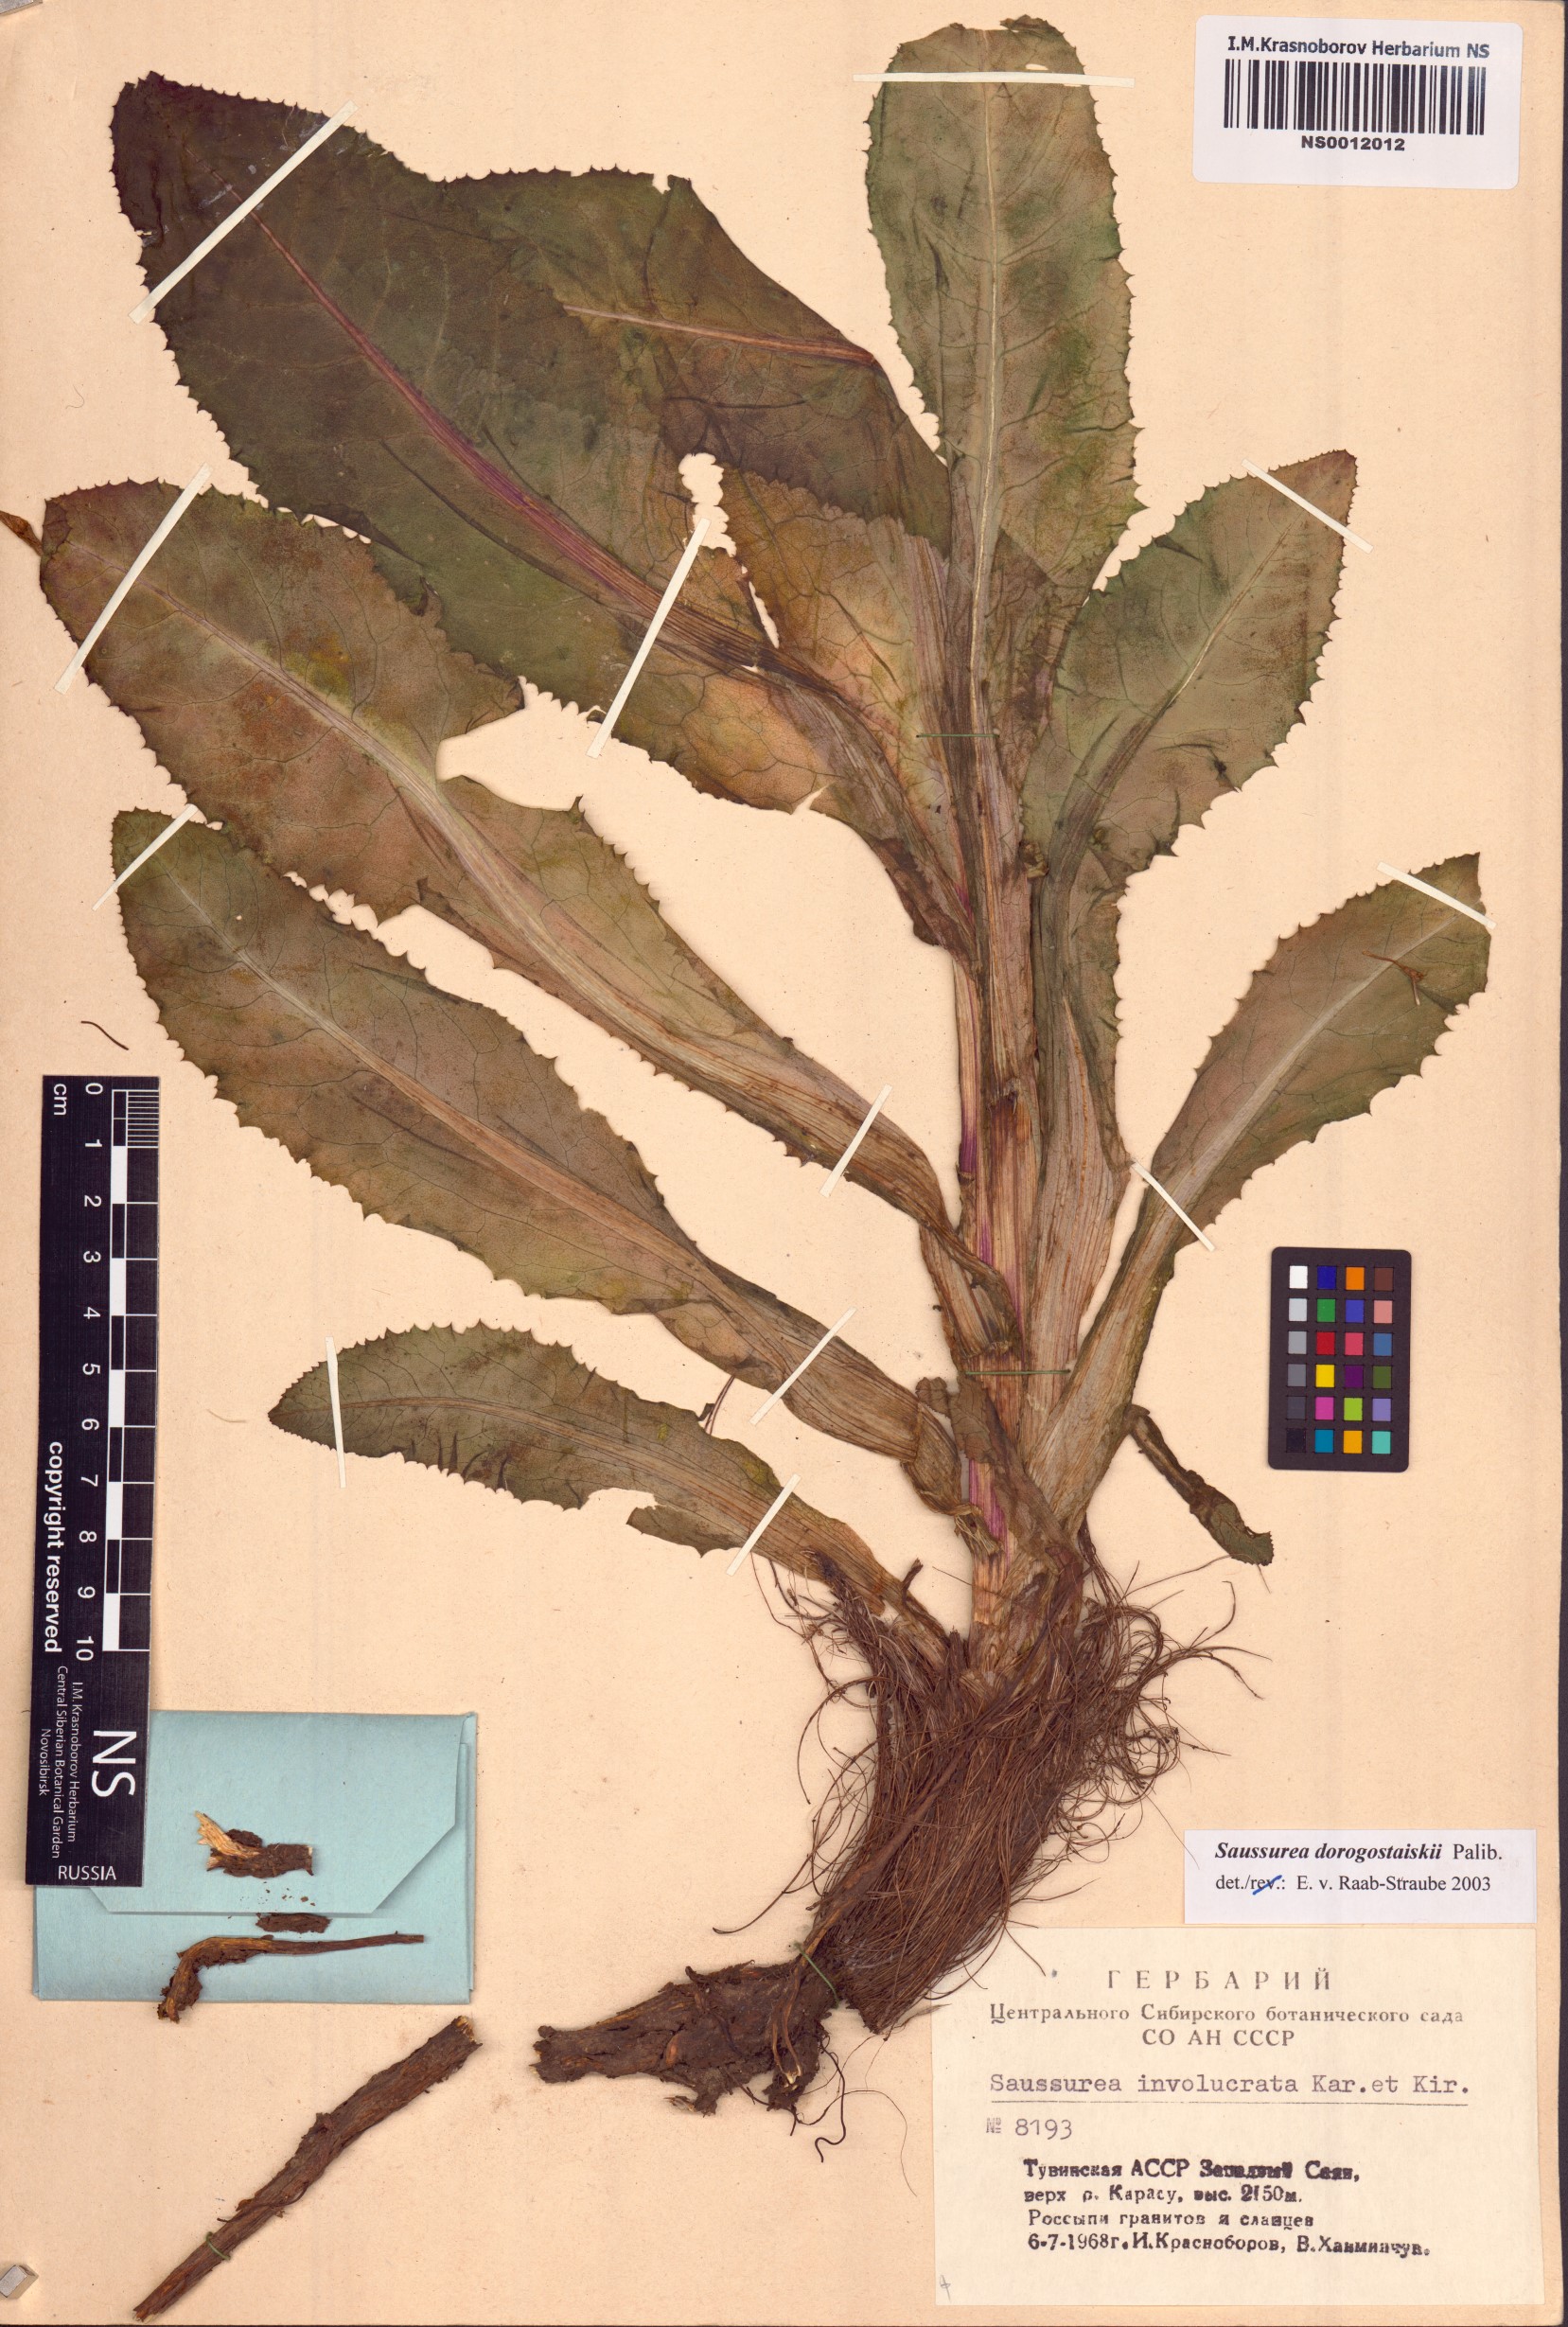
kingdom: Plantae
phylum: Tracheophyta
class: Magnoliopsida
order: Asterales
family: Asteraceae
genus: Saussurea
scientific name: Saussurea involucrata
